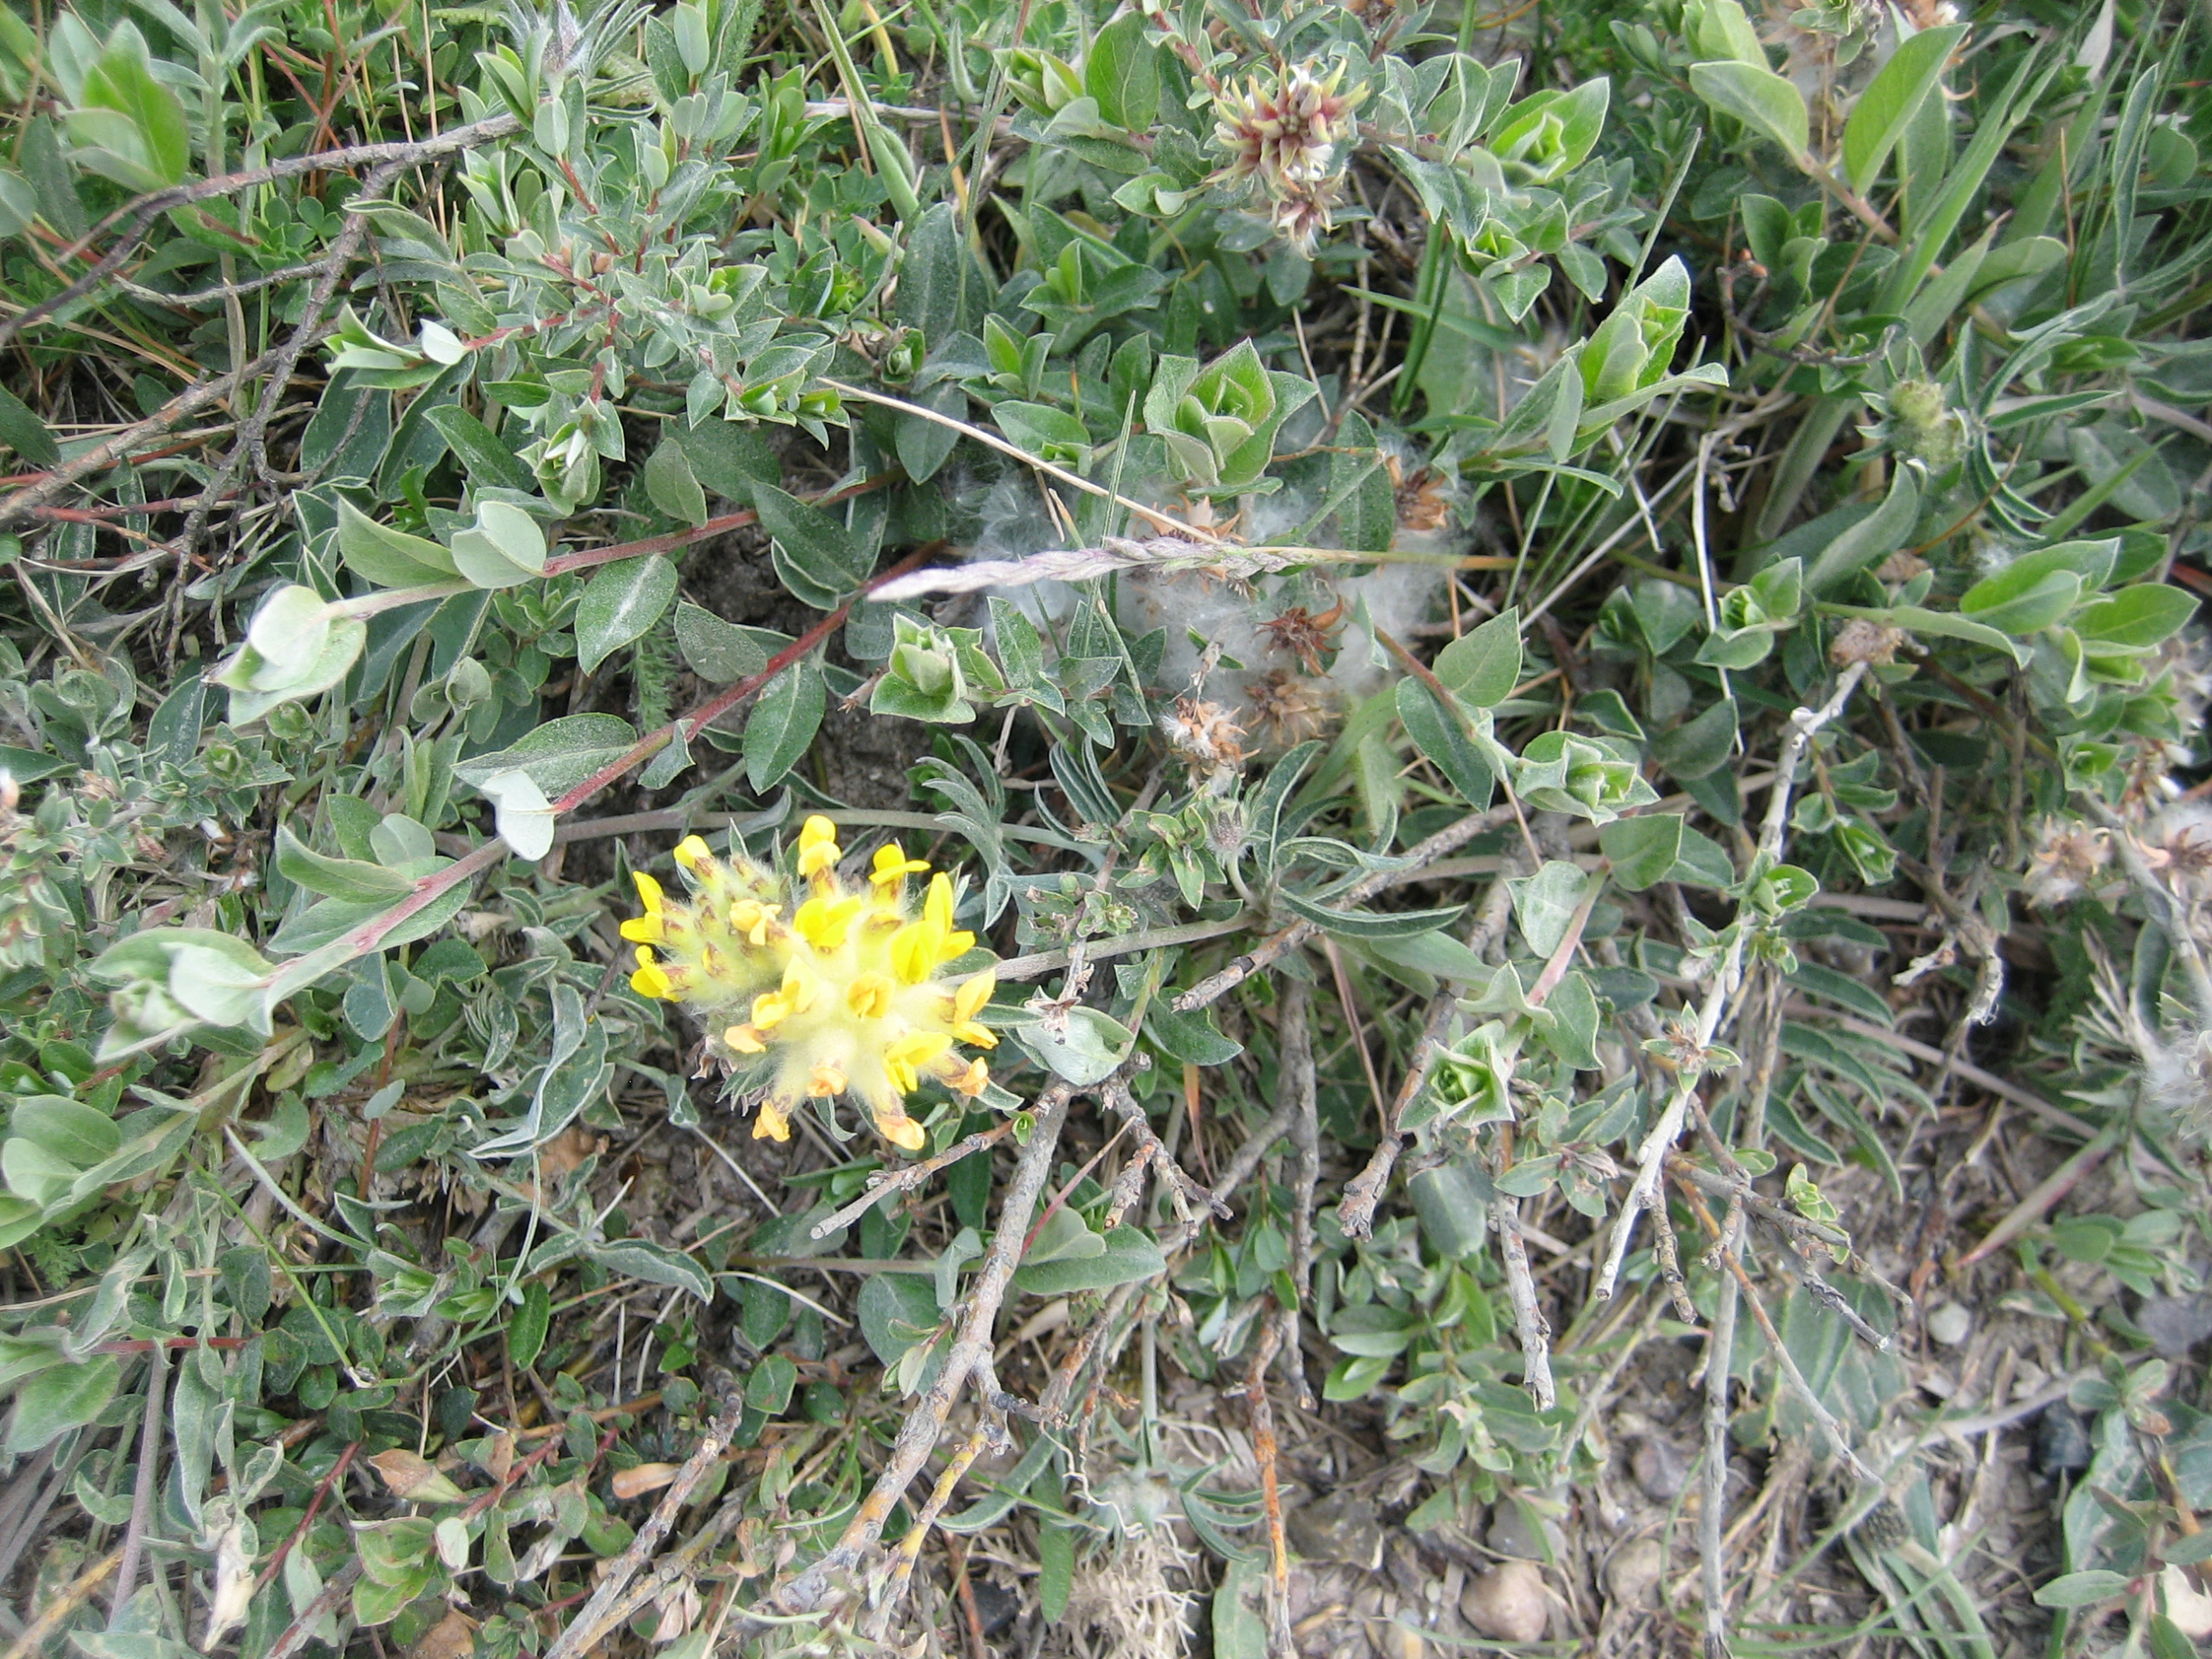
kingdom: Plantae
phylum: Tracheophyta
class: Magnoliopsida
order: Fabales
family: Fabaceae
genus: Anthyllis
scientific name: Anthyllis vulneraria
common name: Rundbælg
